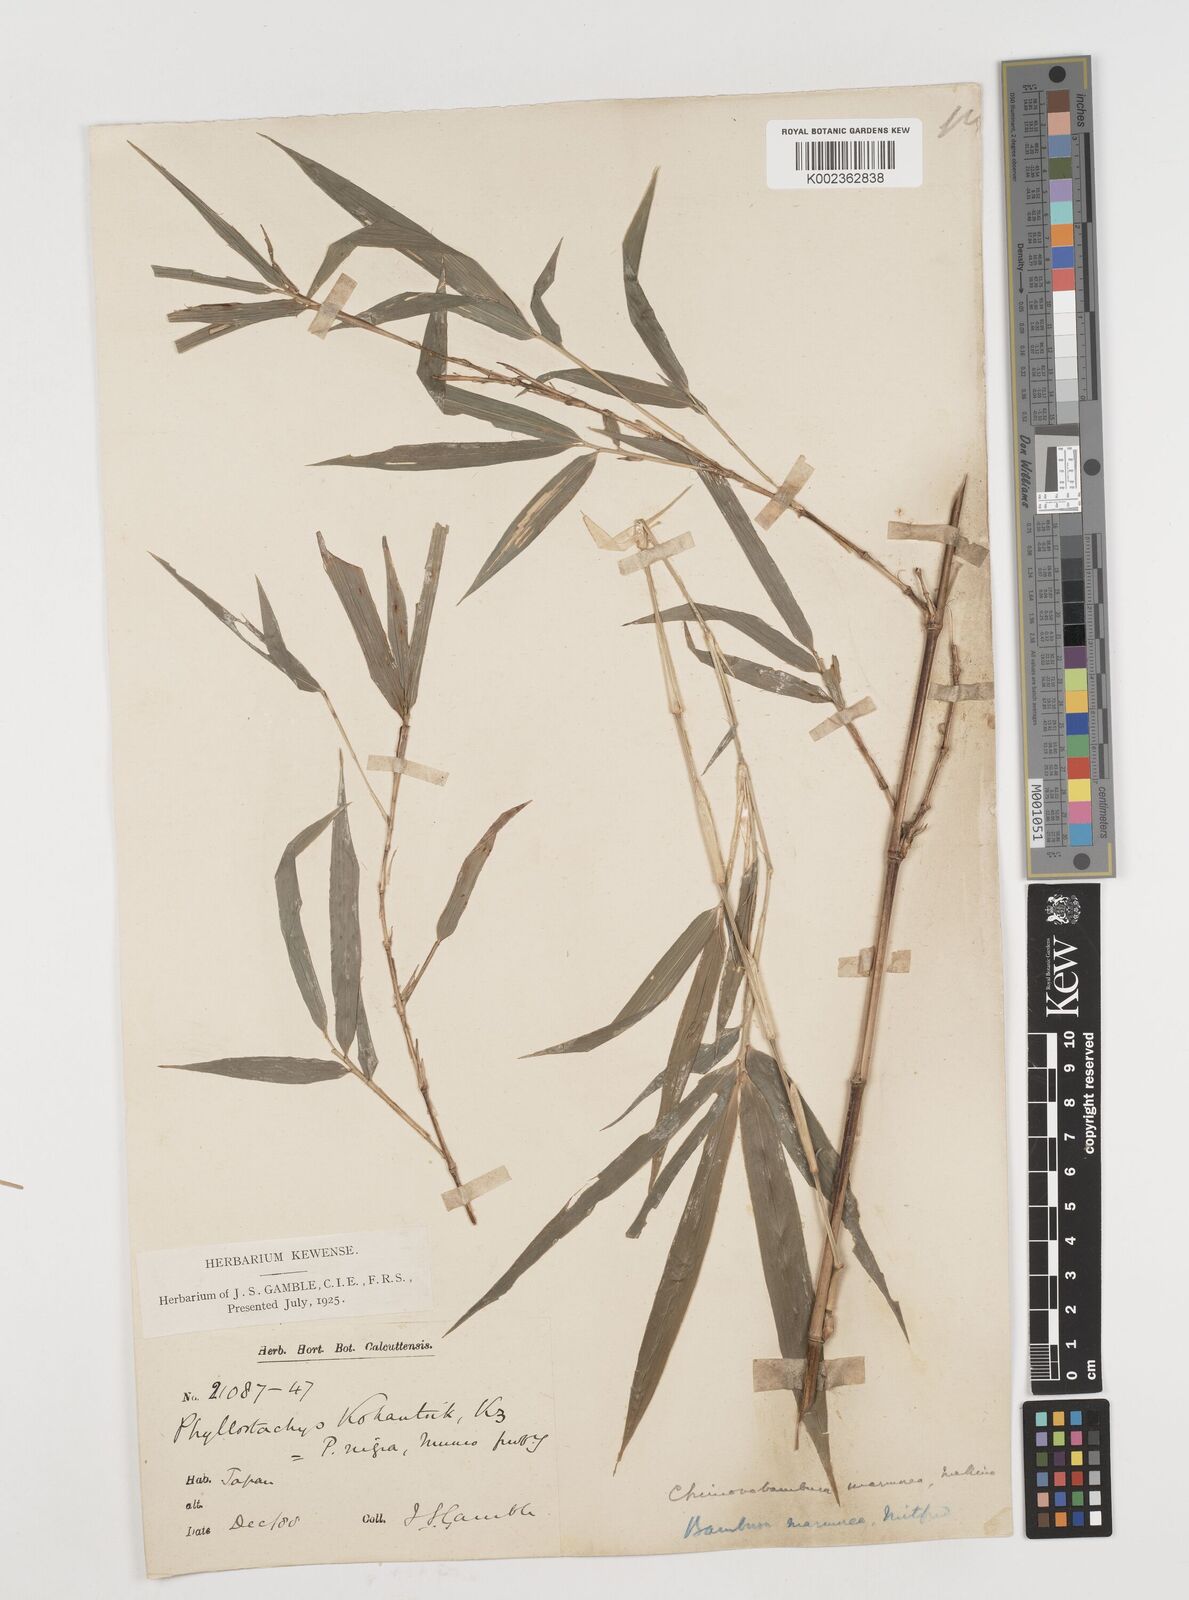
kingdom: Plantae
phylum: Tracheophyta
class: Liliopsida
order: Poales
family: Poaceae
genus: Chimonobambusa
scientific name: Chimonobambusa marmorea
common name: Marbled bamboo
